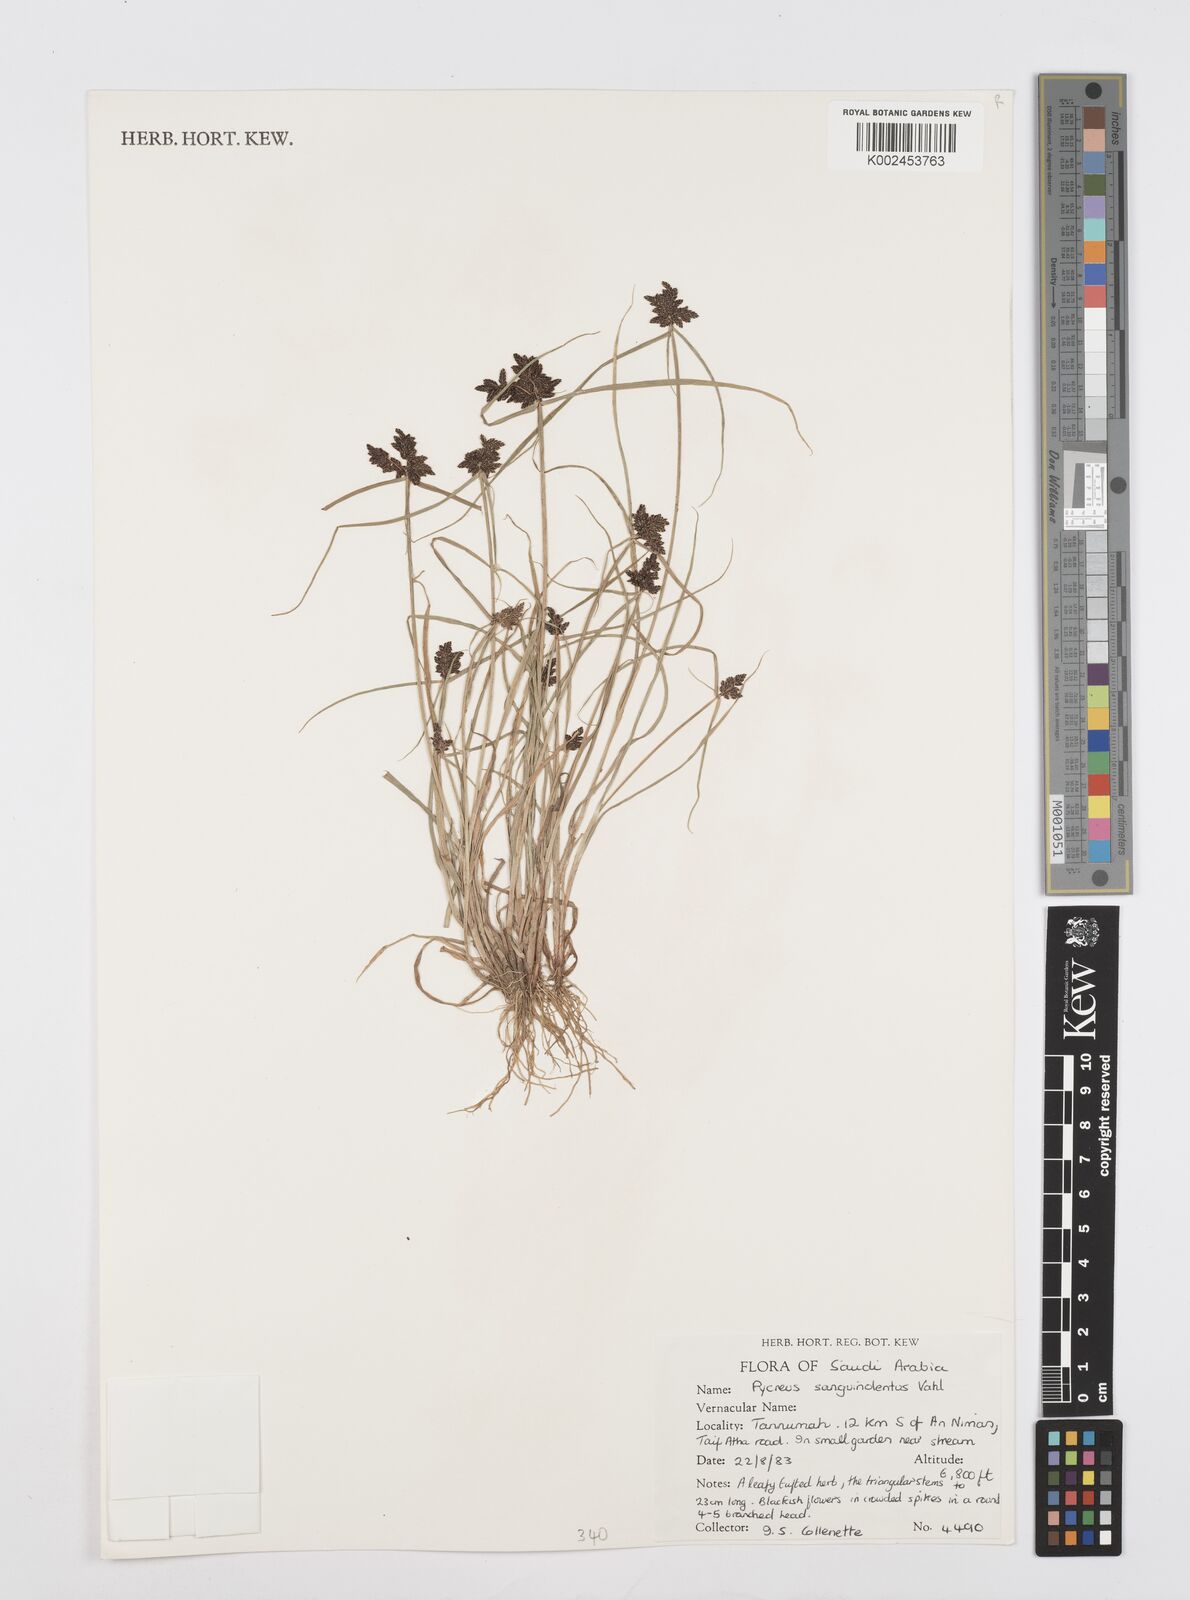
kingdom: Plantae
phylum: Tracheophyta
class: Liliopsida
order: Poales
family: Cyperaceae
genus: Cyperus
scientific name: Cyperus sanguinolentus
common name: Purpleglume flatsedge
